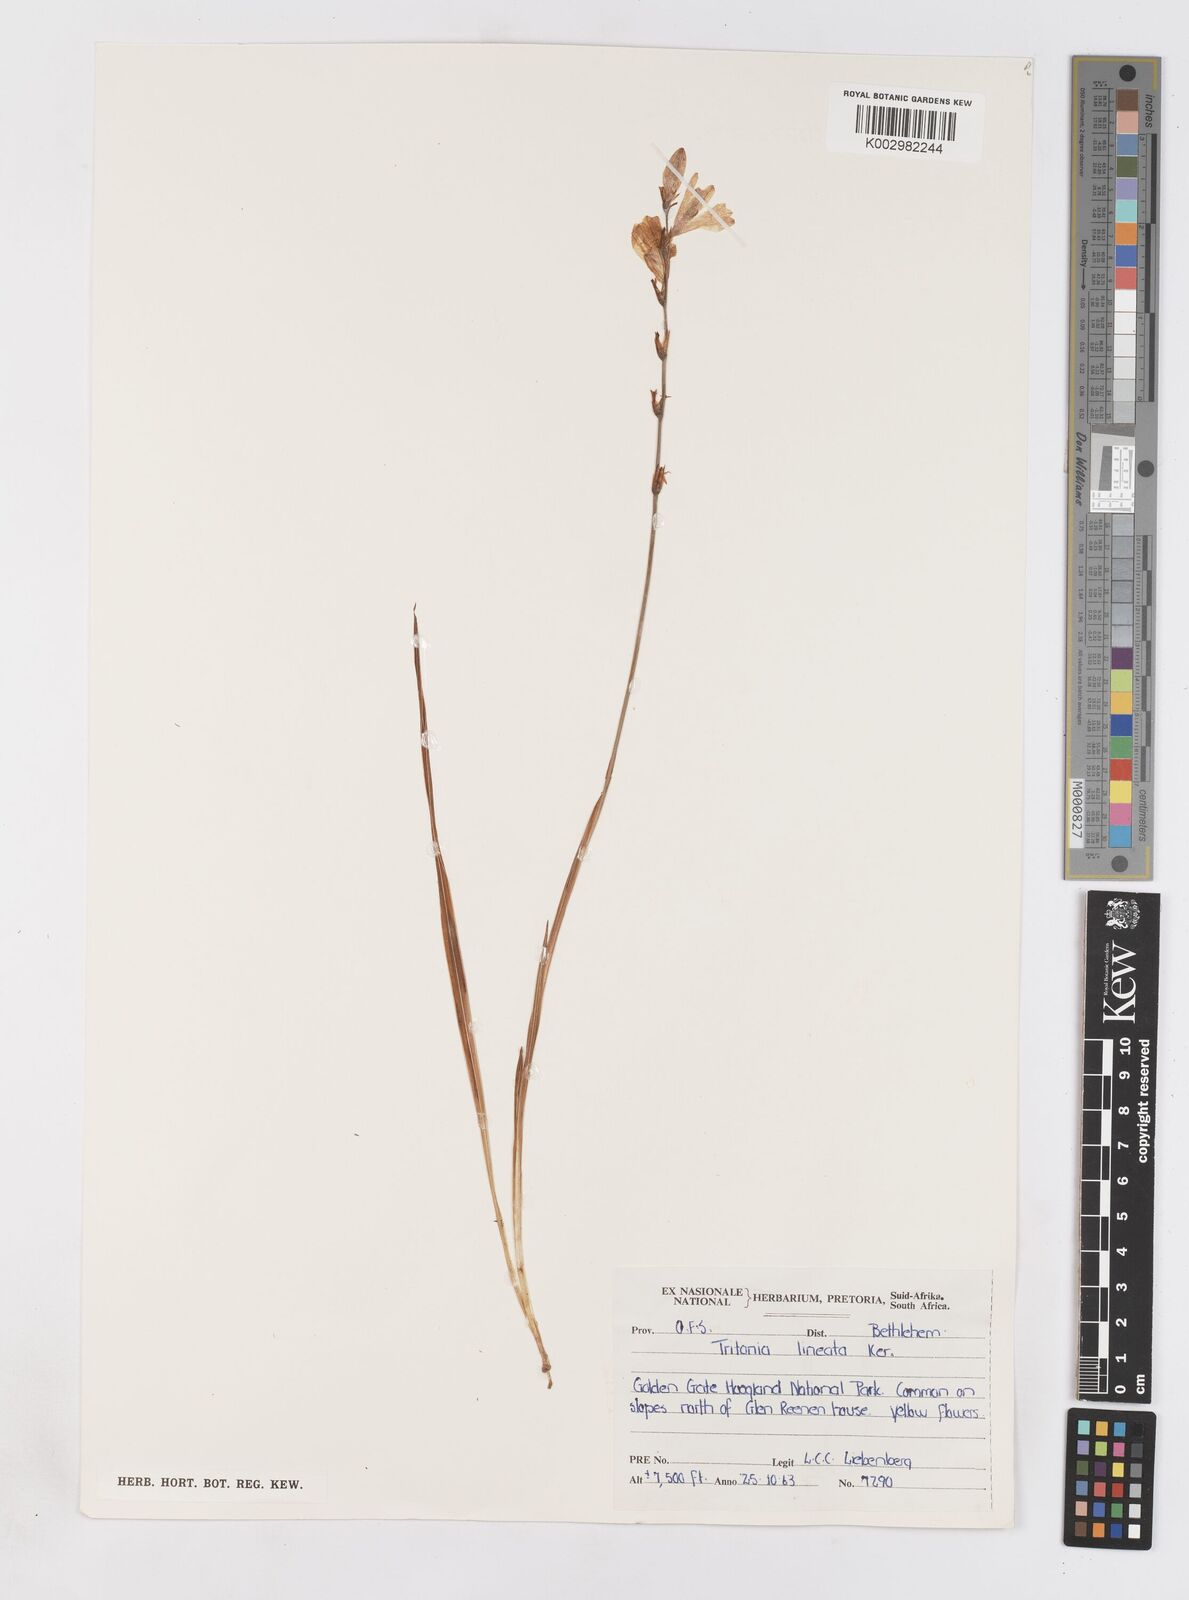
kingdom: Plantae
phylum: Tracheophyta
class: Liliopsida
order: Asparagales
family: Iridaceae
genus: Tritonia
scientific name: Tritonia gladiolaris
